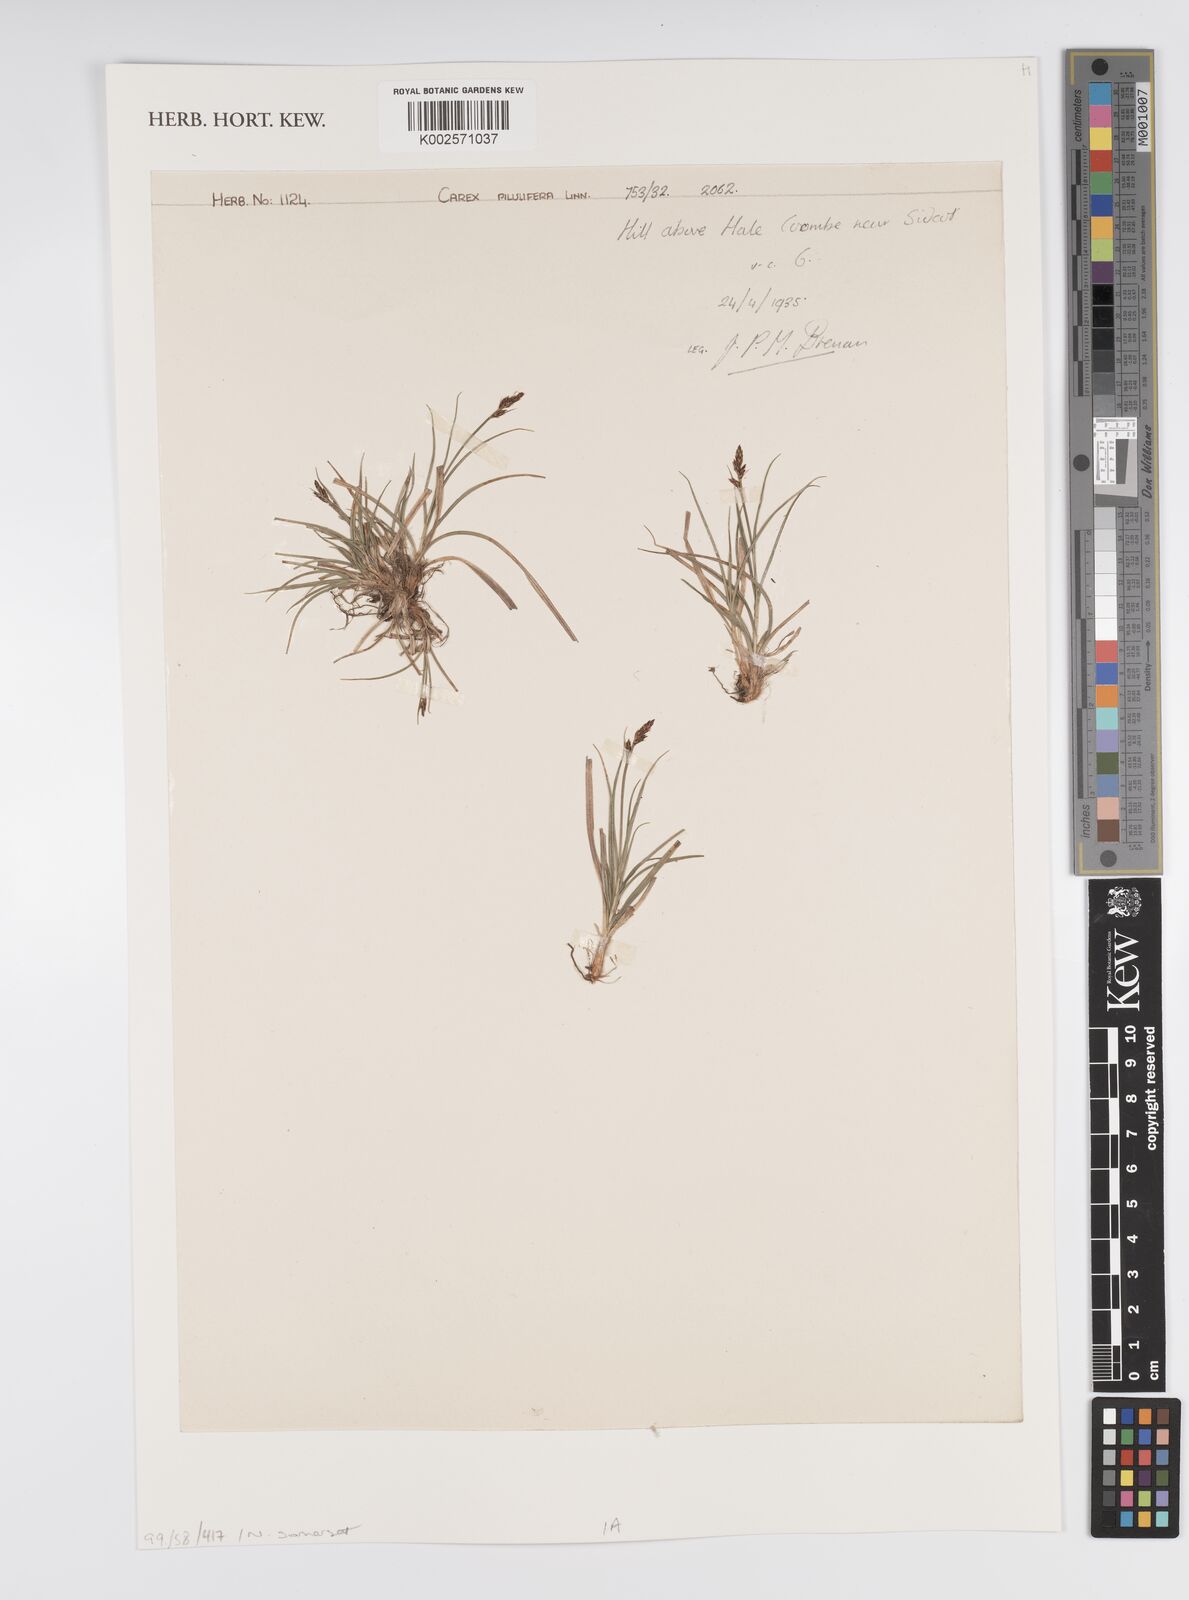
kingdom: Plantae
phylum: Tracheophyta
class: Liliopsida
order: Poales
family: Cyperaceae
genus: Carex
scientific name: Carex pilulifera
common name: Pill sedge
